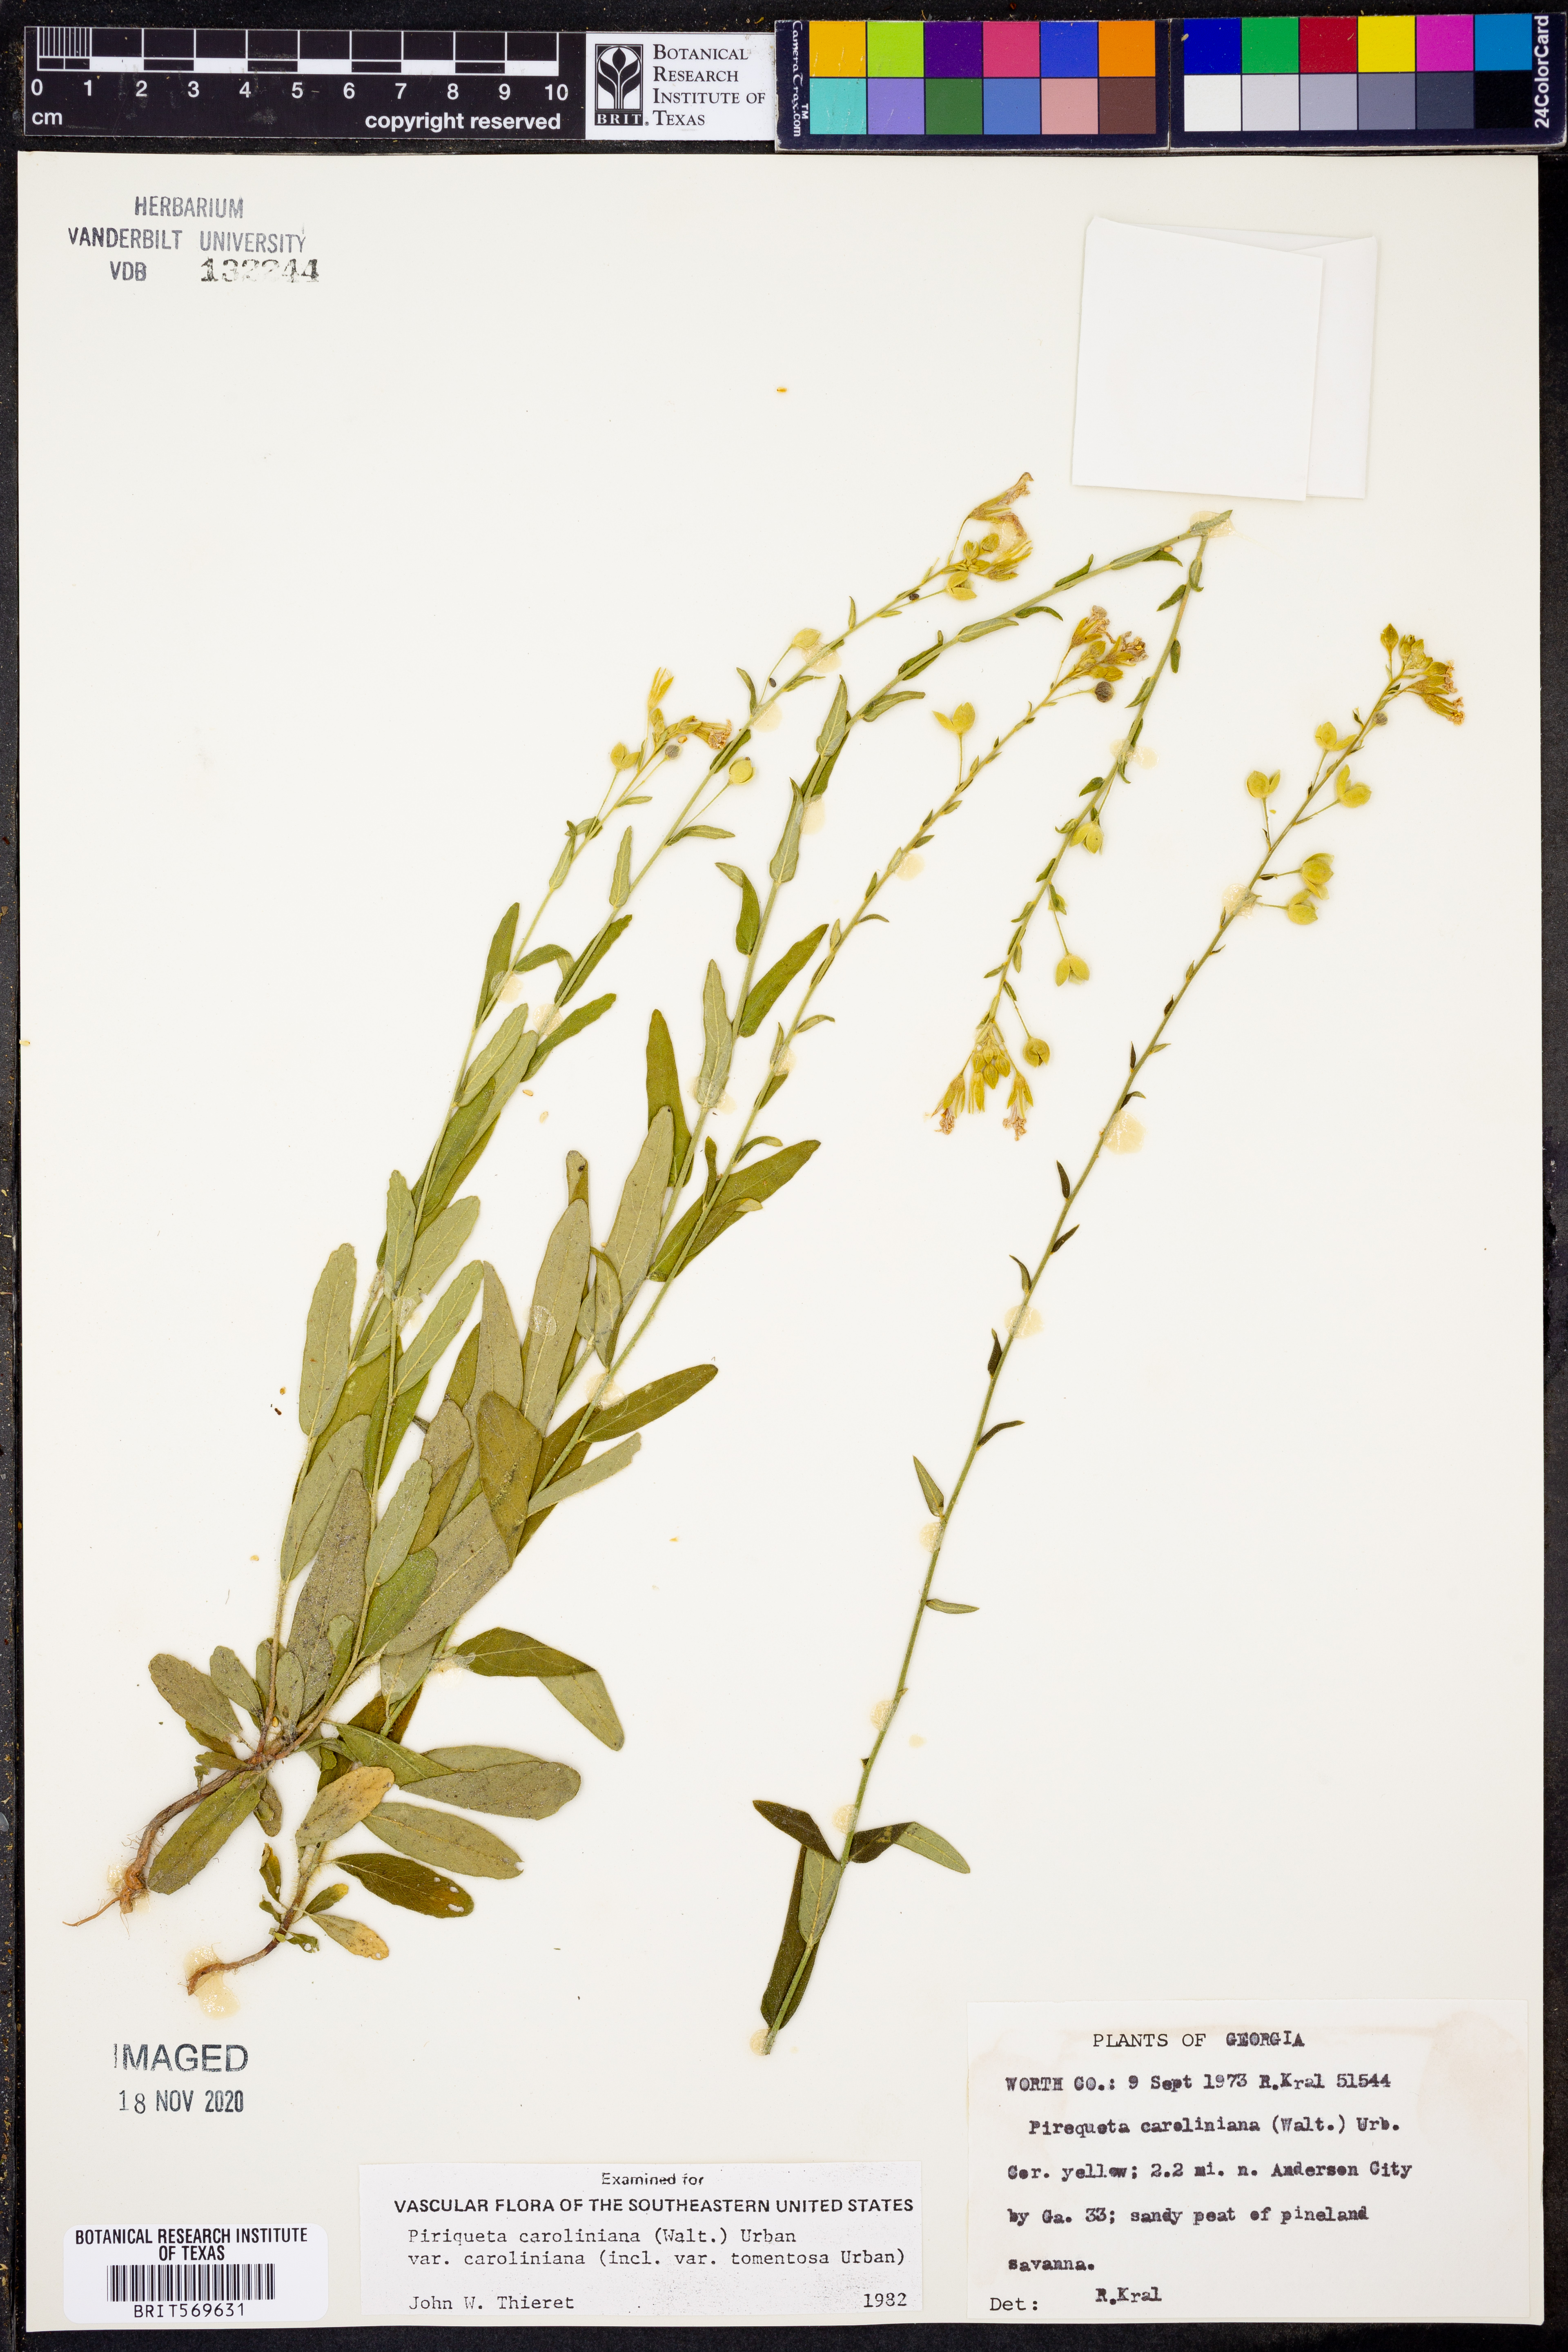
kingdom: Plantae
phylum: Tracheophyta
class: Magnoliopsida
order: Malpighiales
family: Turneraceae
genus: Piriqueta
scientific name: Piriqueta cistoides
